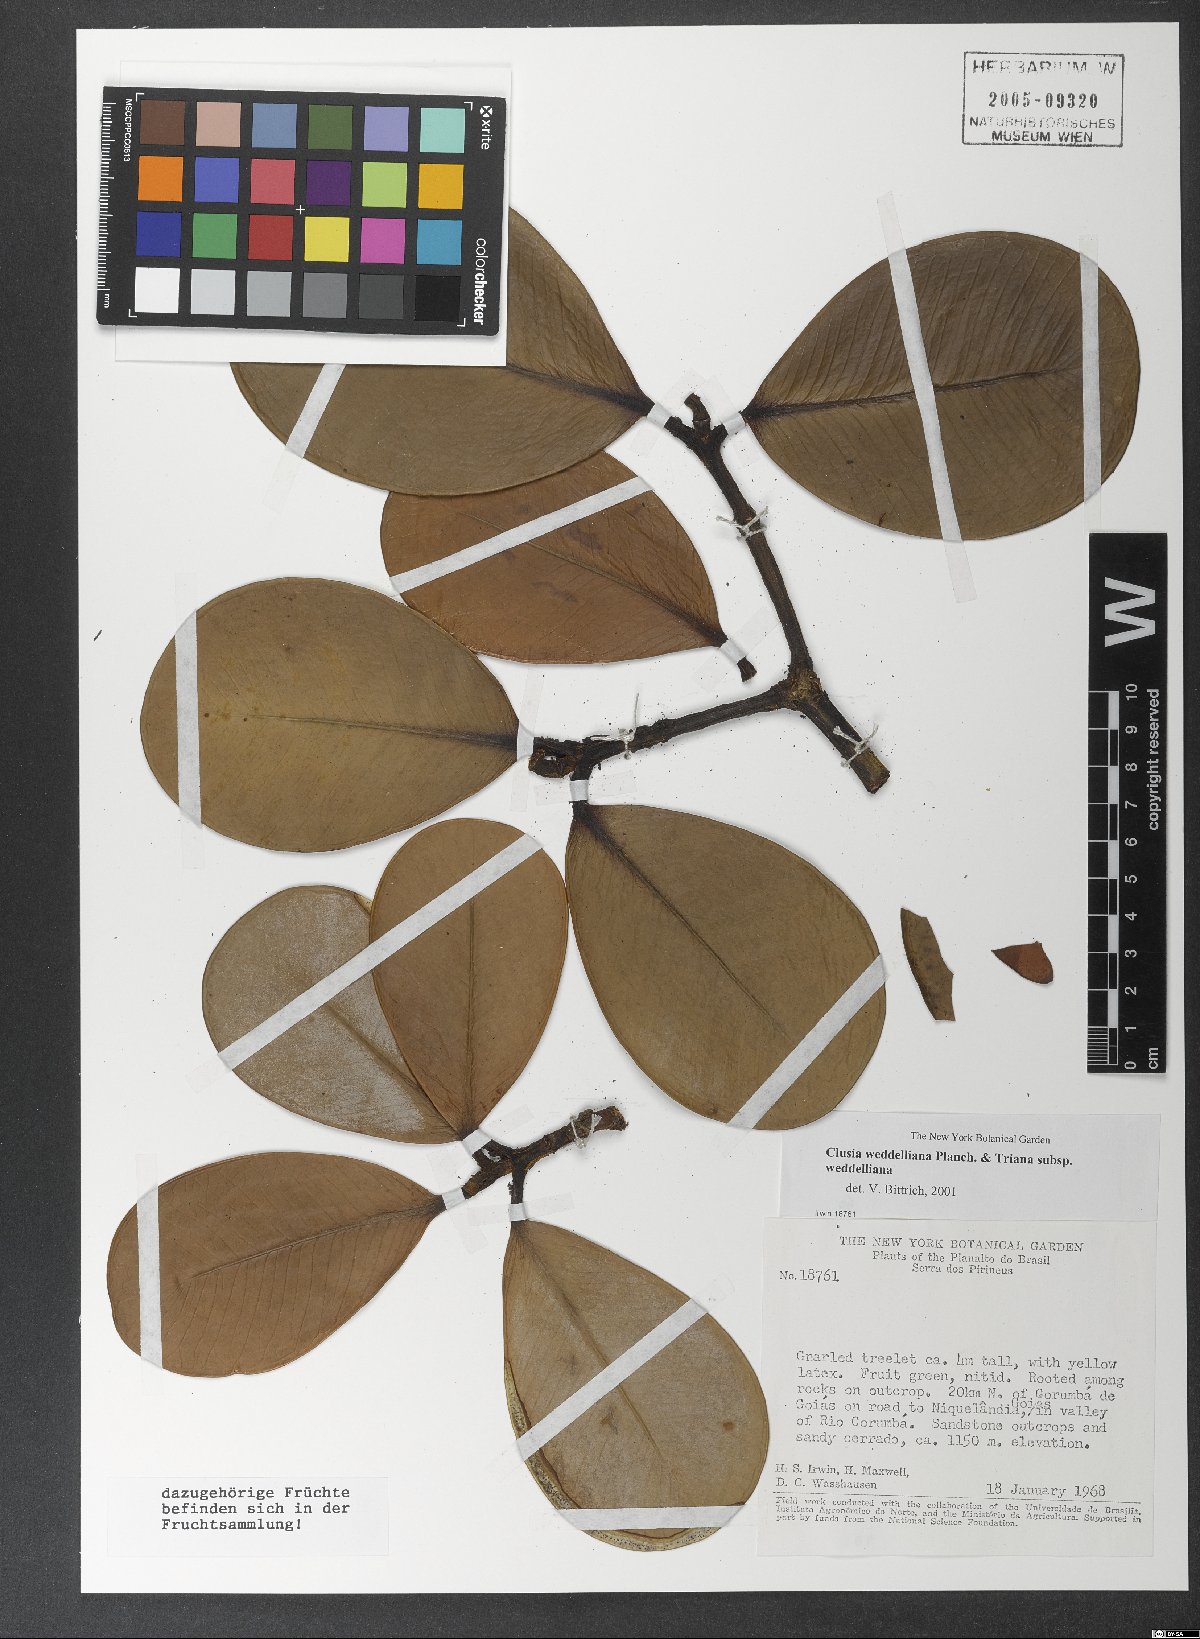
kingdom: Plantae
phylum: Tracheophyta
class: Magnoliopsida
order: Malpighiales
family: Clusiaceae
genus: Clusia
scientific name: Clusia weddelliana
